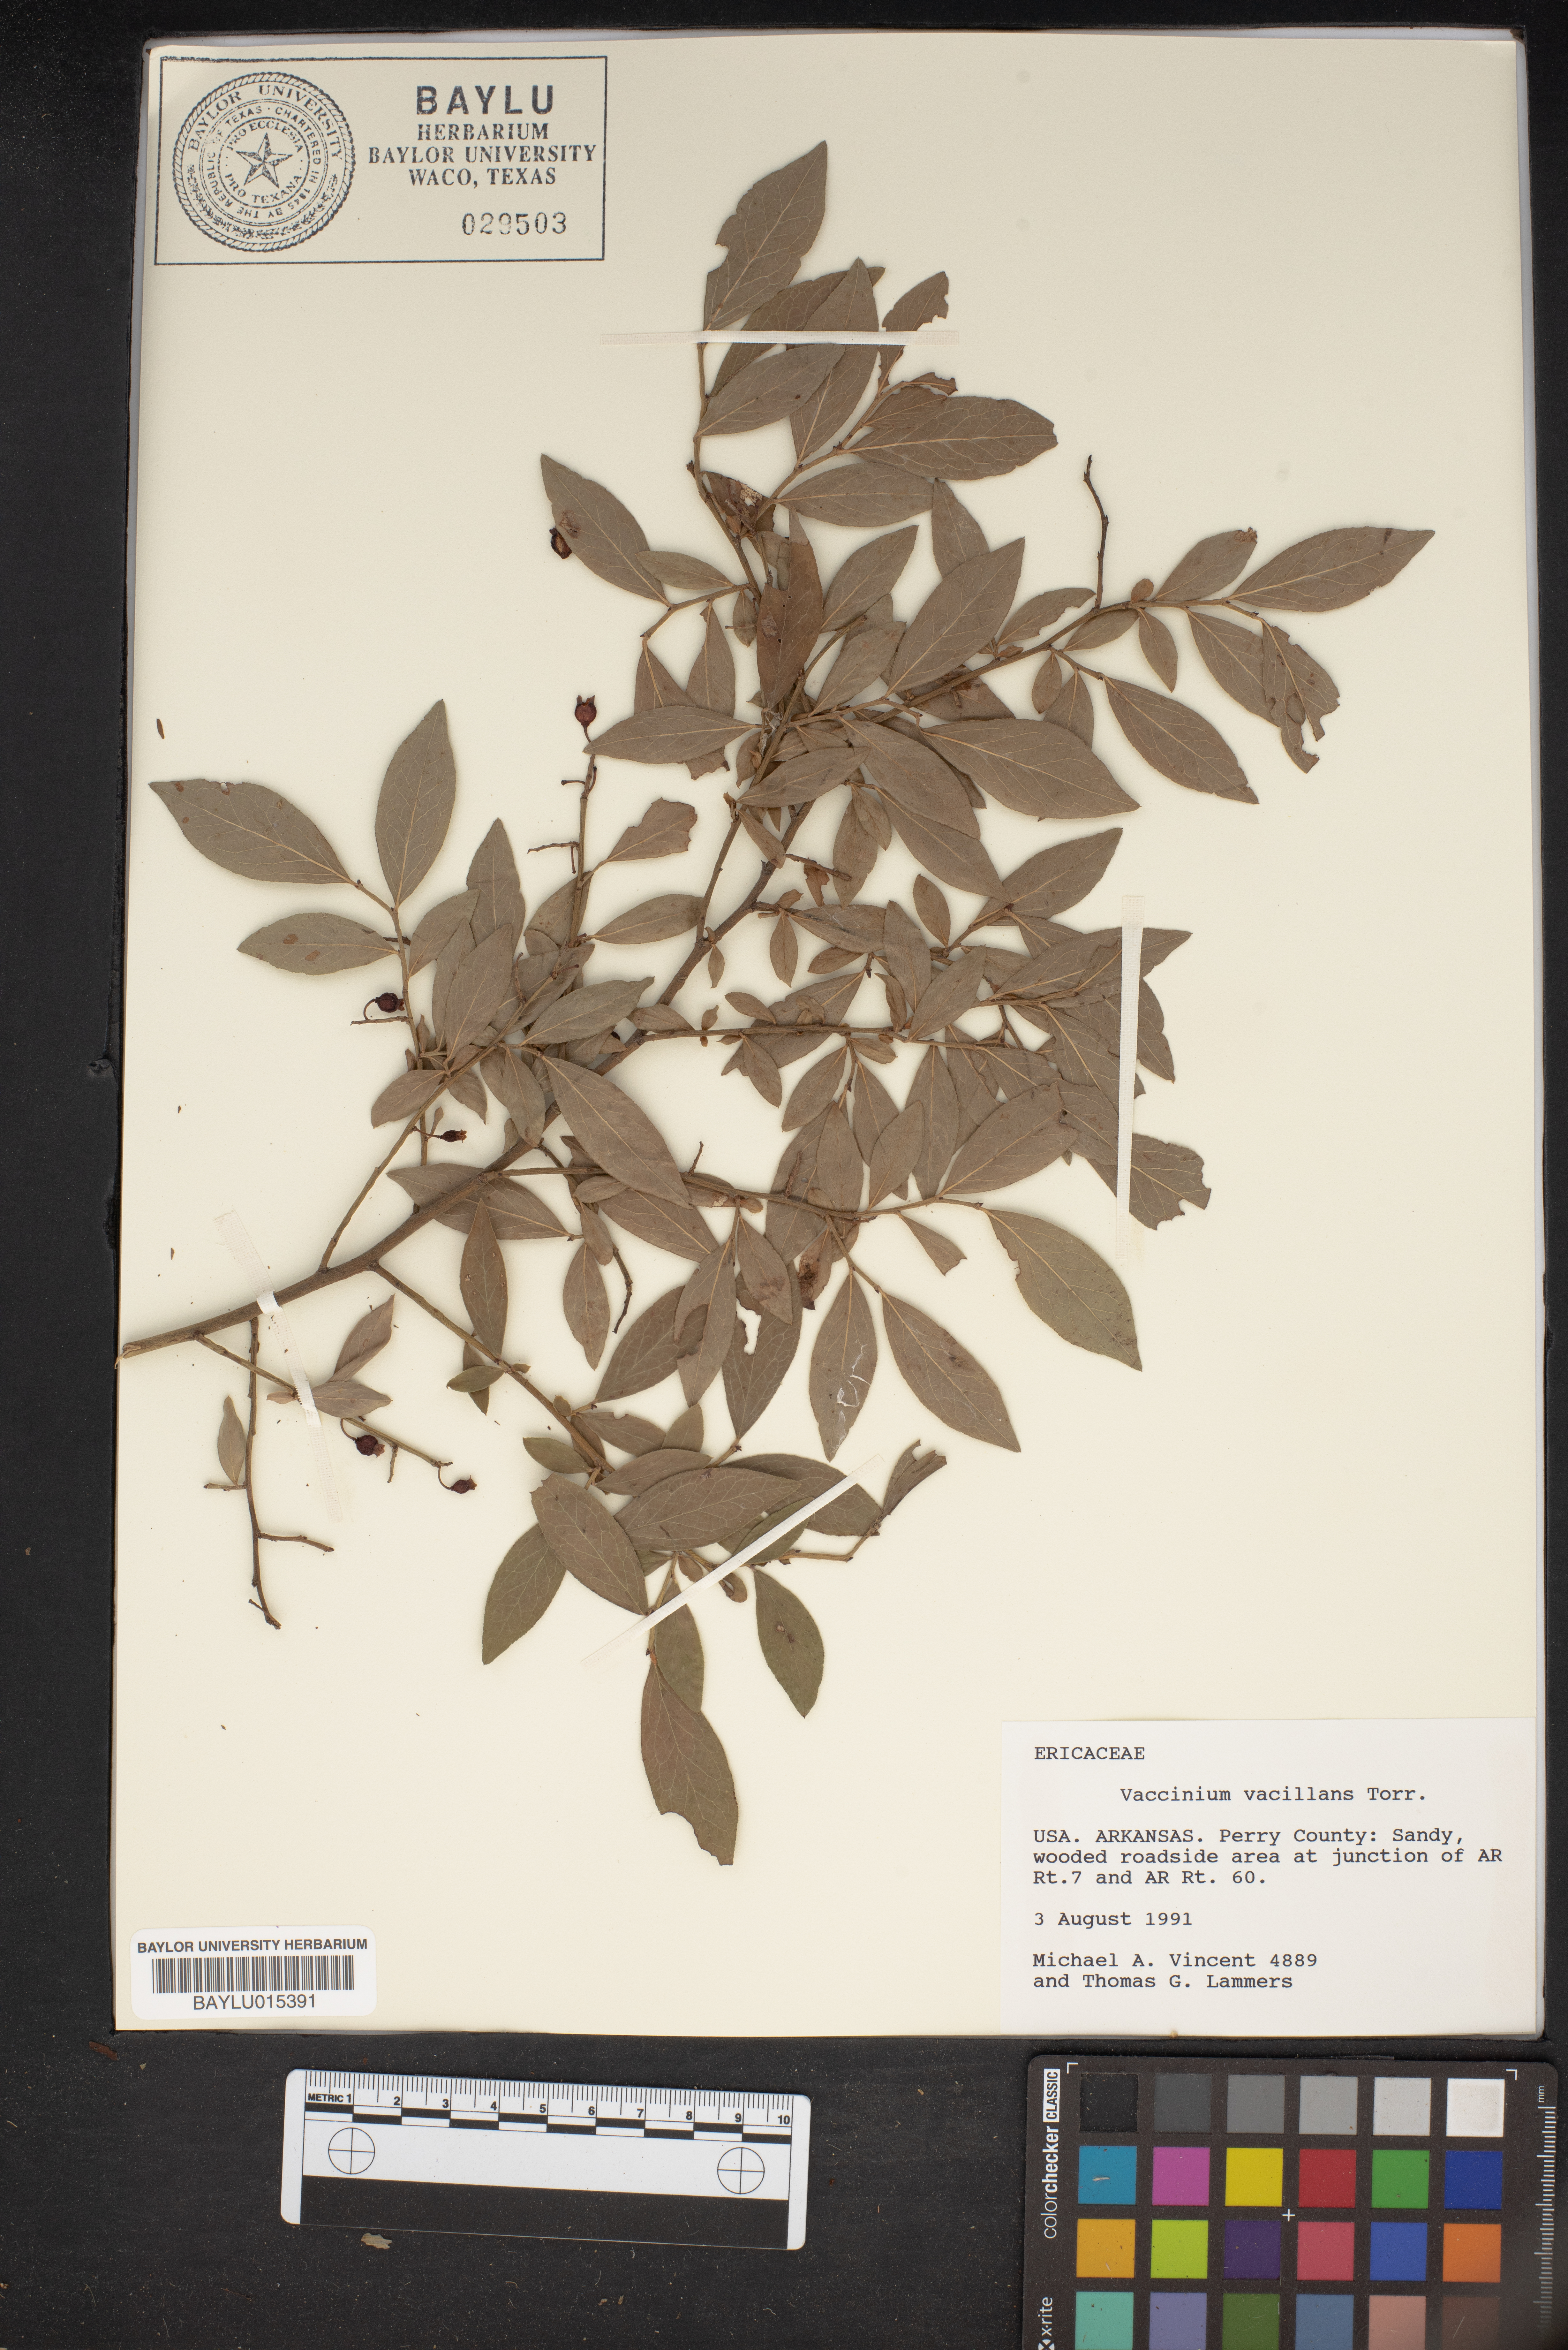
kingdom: Plantae
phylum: Tracheophyta
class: Magnoliopsida
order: Ericales
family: Ericaceae
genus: Vaccinium
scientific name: Vaccinium pallidum
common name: Blue ridge blueberry
